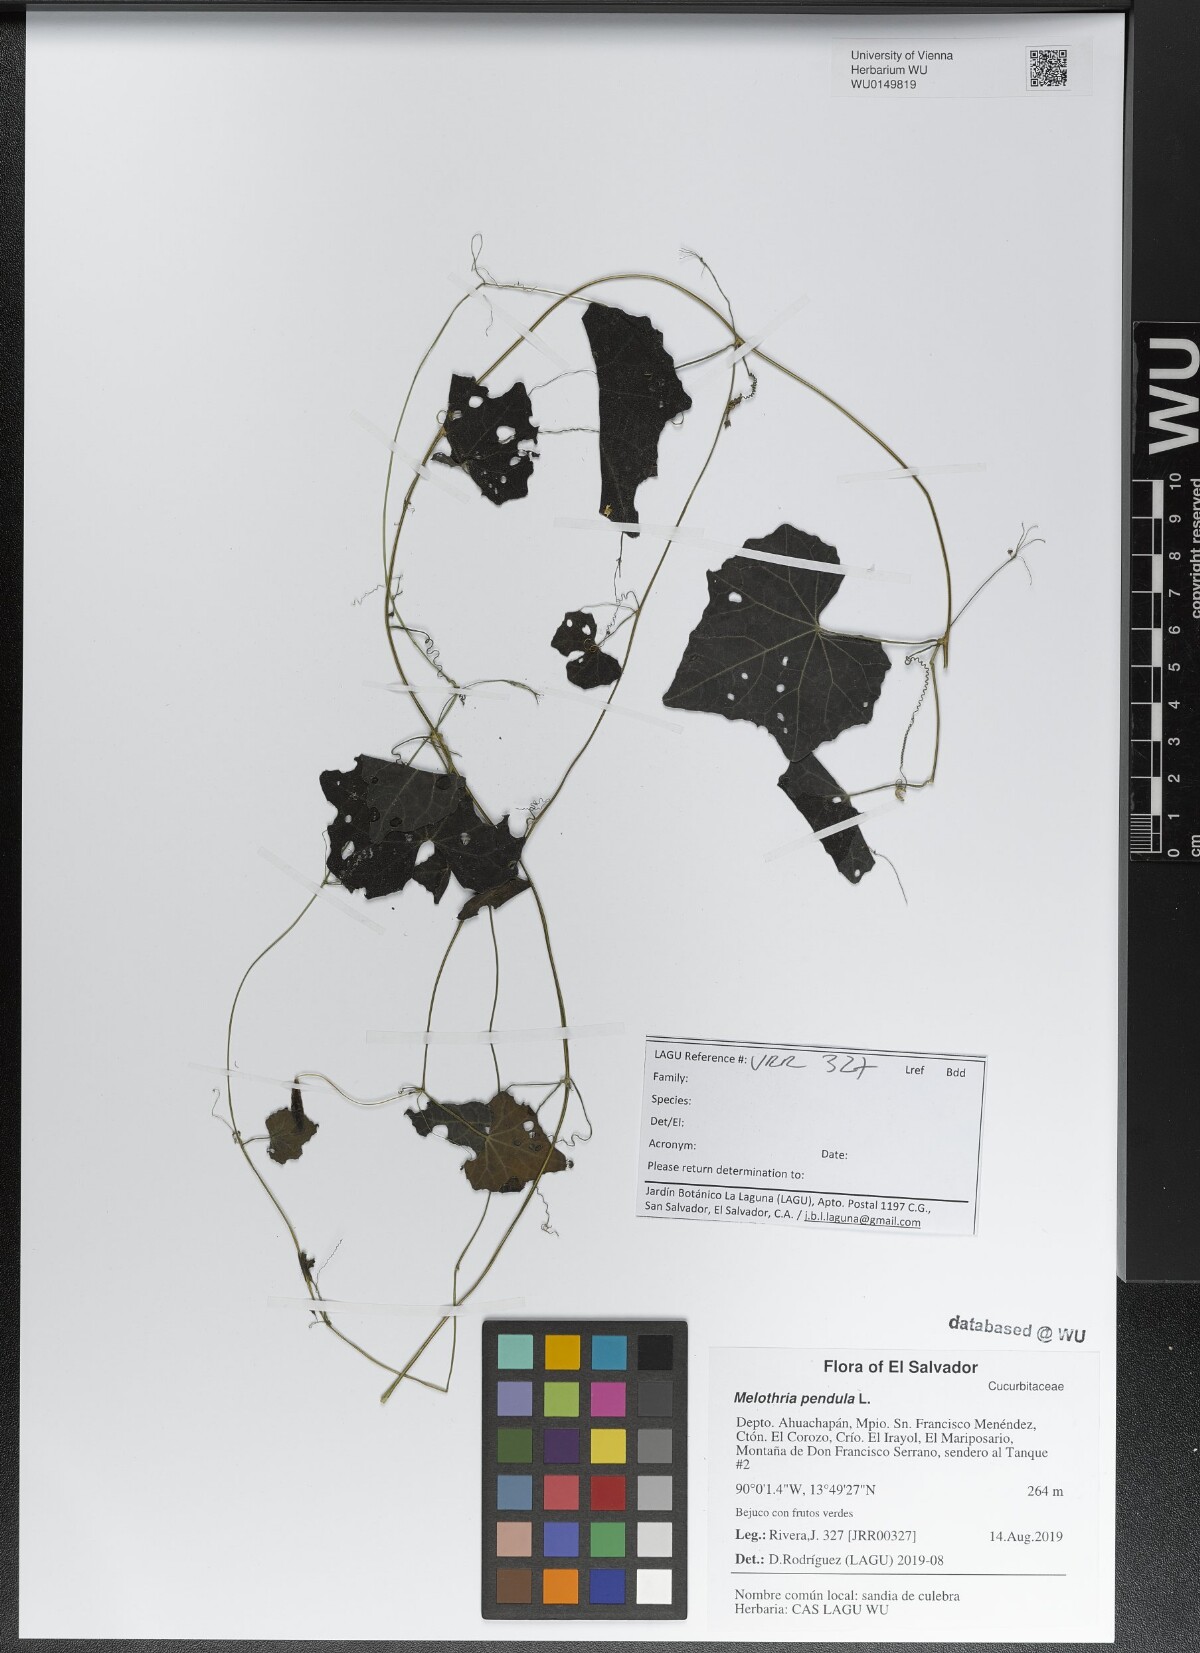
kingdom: Plantae
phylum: Tracheophyta
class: Magnoliopsida
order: Cucurbitales
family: Cucurbitaceae
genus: Melothria
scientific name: Melothria pendula
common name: Creeping-cucumber
